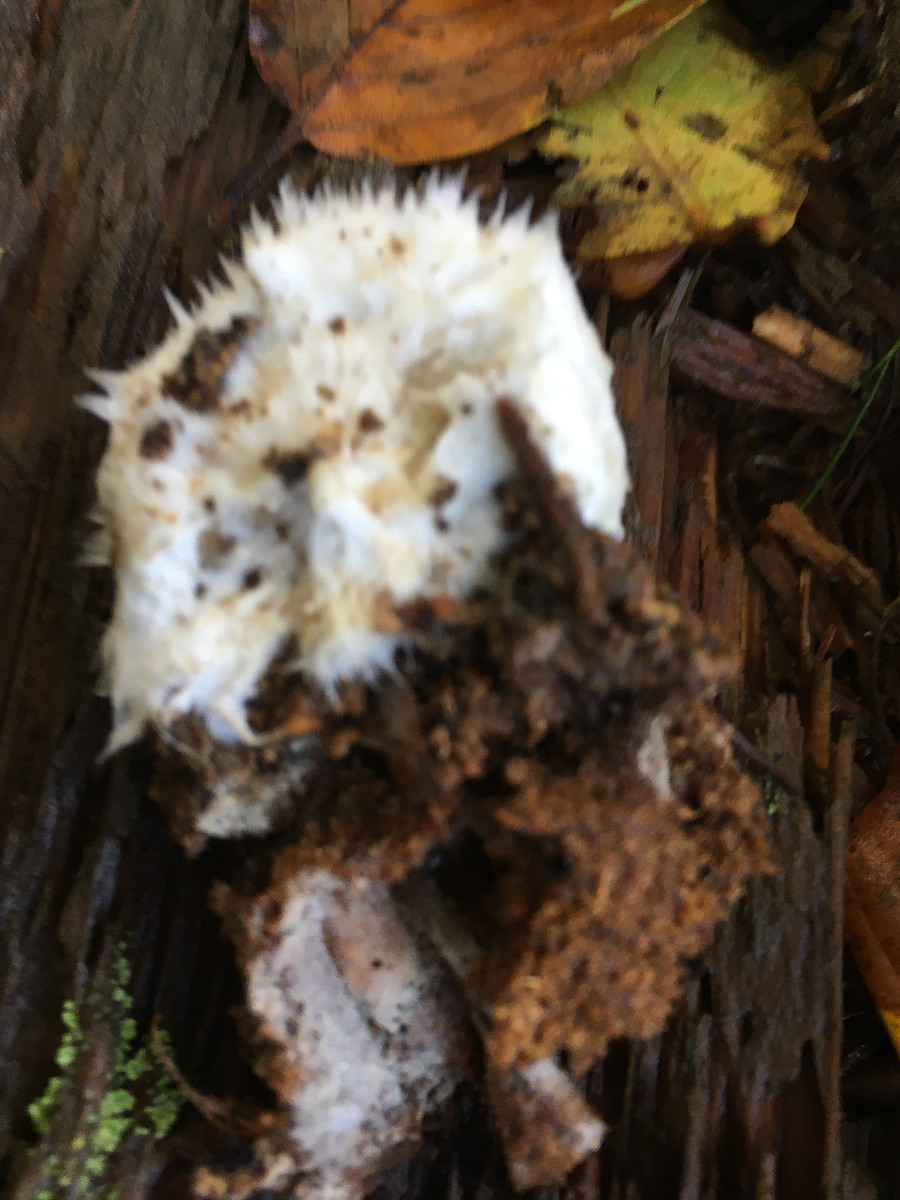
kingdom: Fungi
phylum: Basidiomycota
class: Agaricomycetes
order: Polyporales
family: Dacryobolaceae
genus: Postia
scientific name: Postia ptychogaster
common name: støvende kødporesvamp
